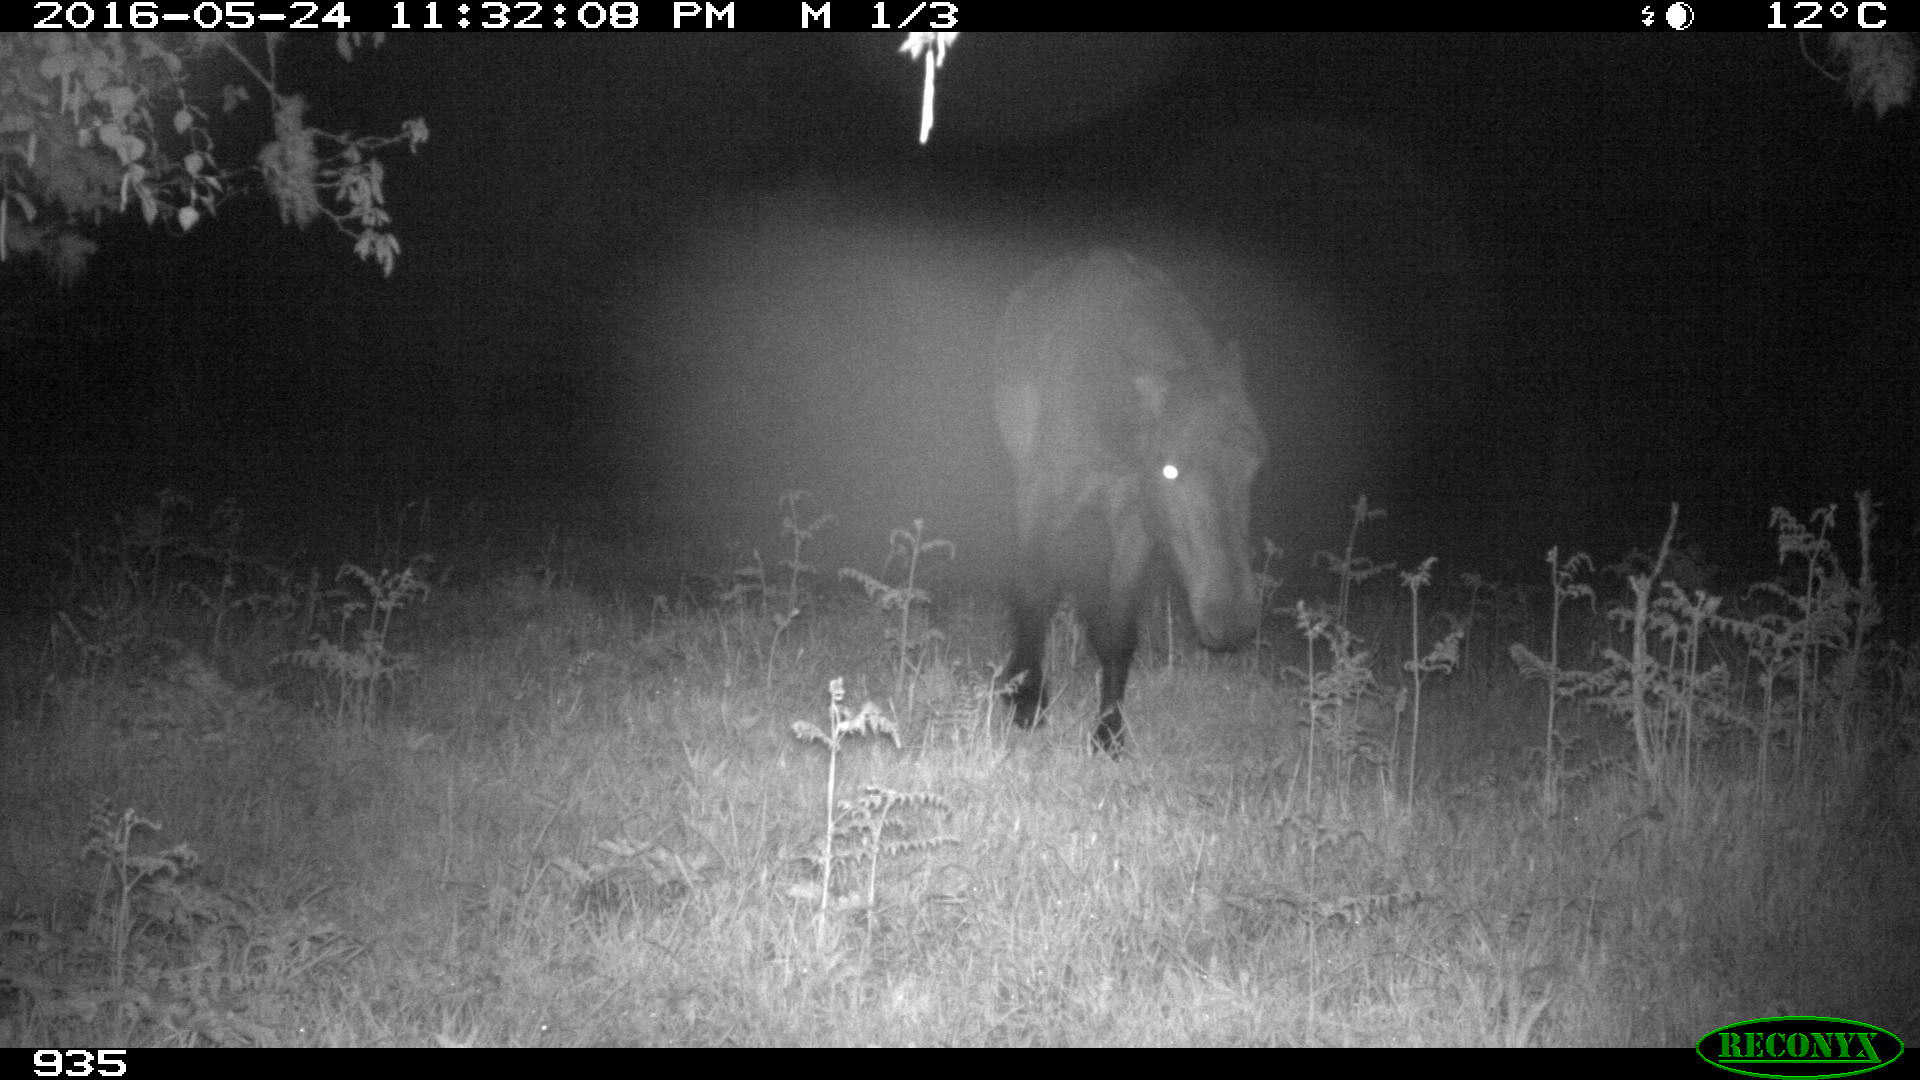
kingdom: Animalia
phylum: Chordata
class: Mammalia
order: Perissodactyla
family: Equidae
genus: Equus
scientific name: Equus caballus
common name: Horse
